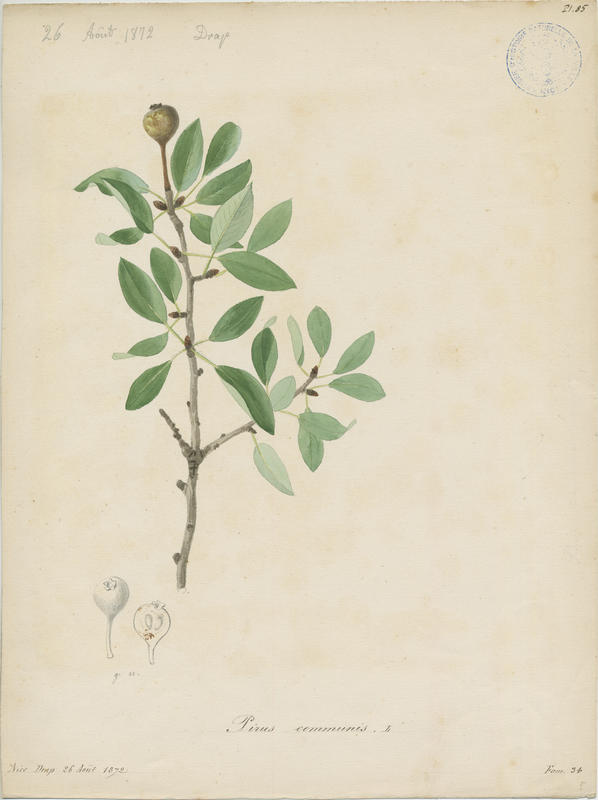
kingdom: Plantae
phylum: Tracheophyta
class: Magnoliopsida
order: Rosales
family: Rosaceae
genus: Pyrus
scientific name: Pyrus communis
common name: Pear
